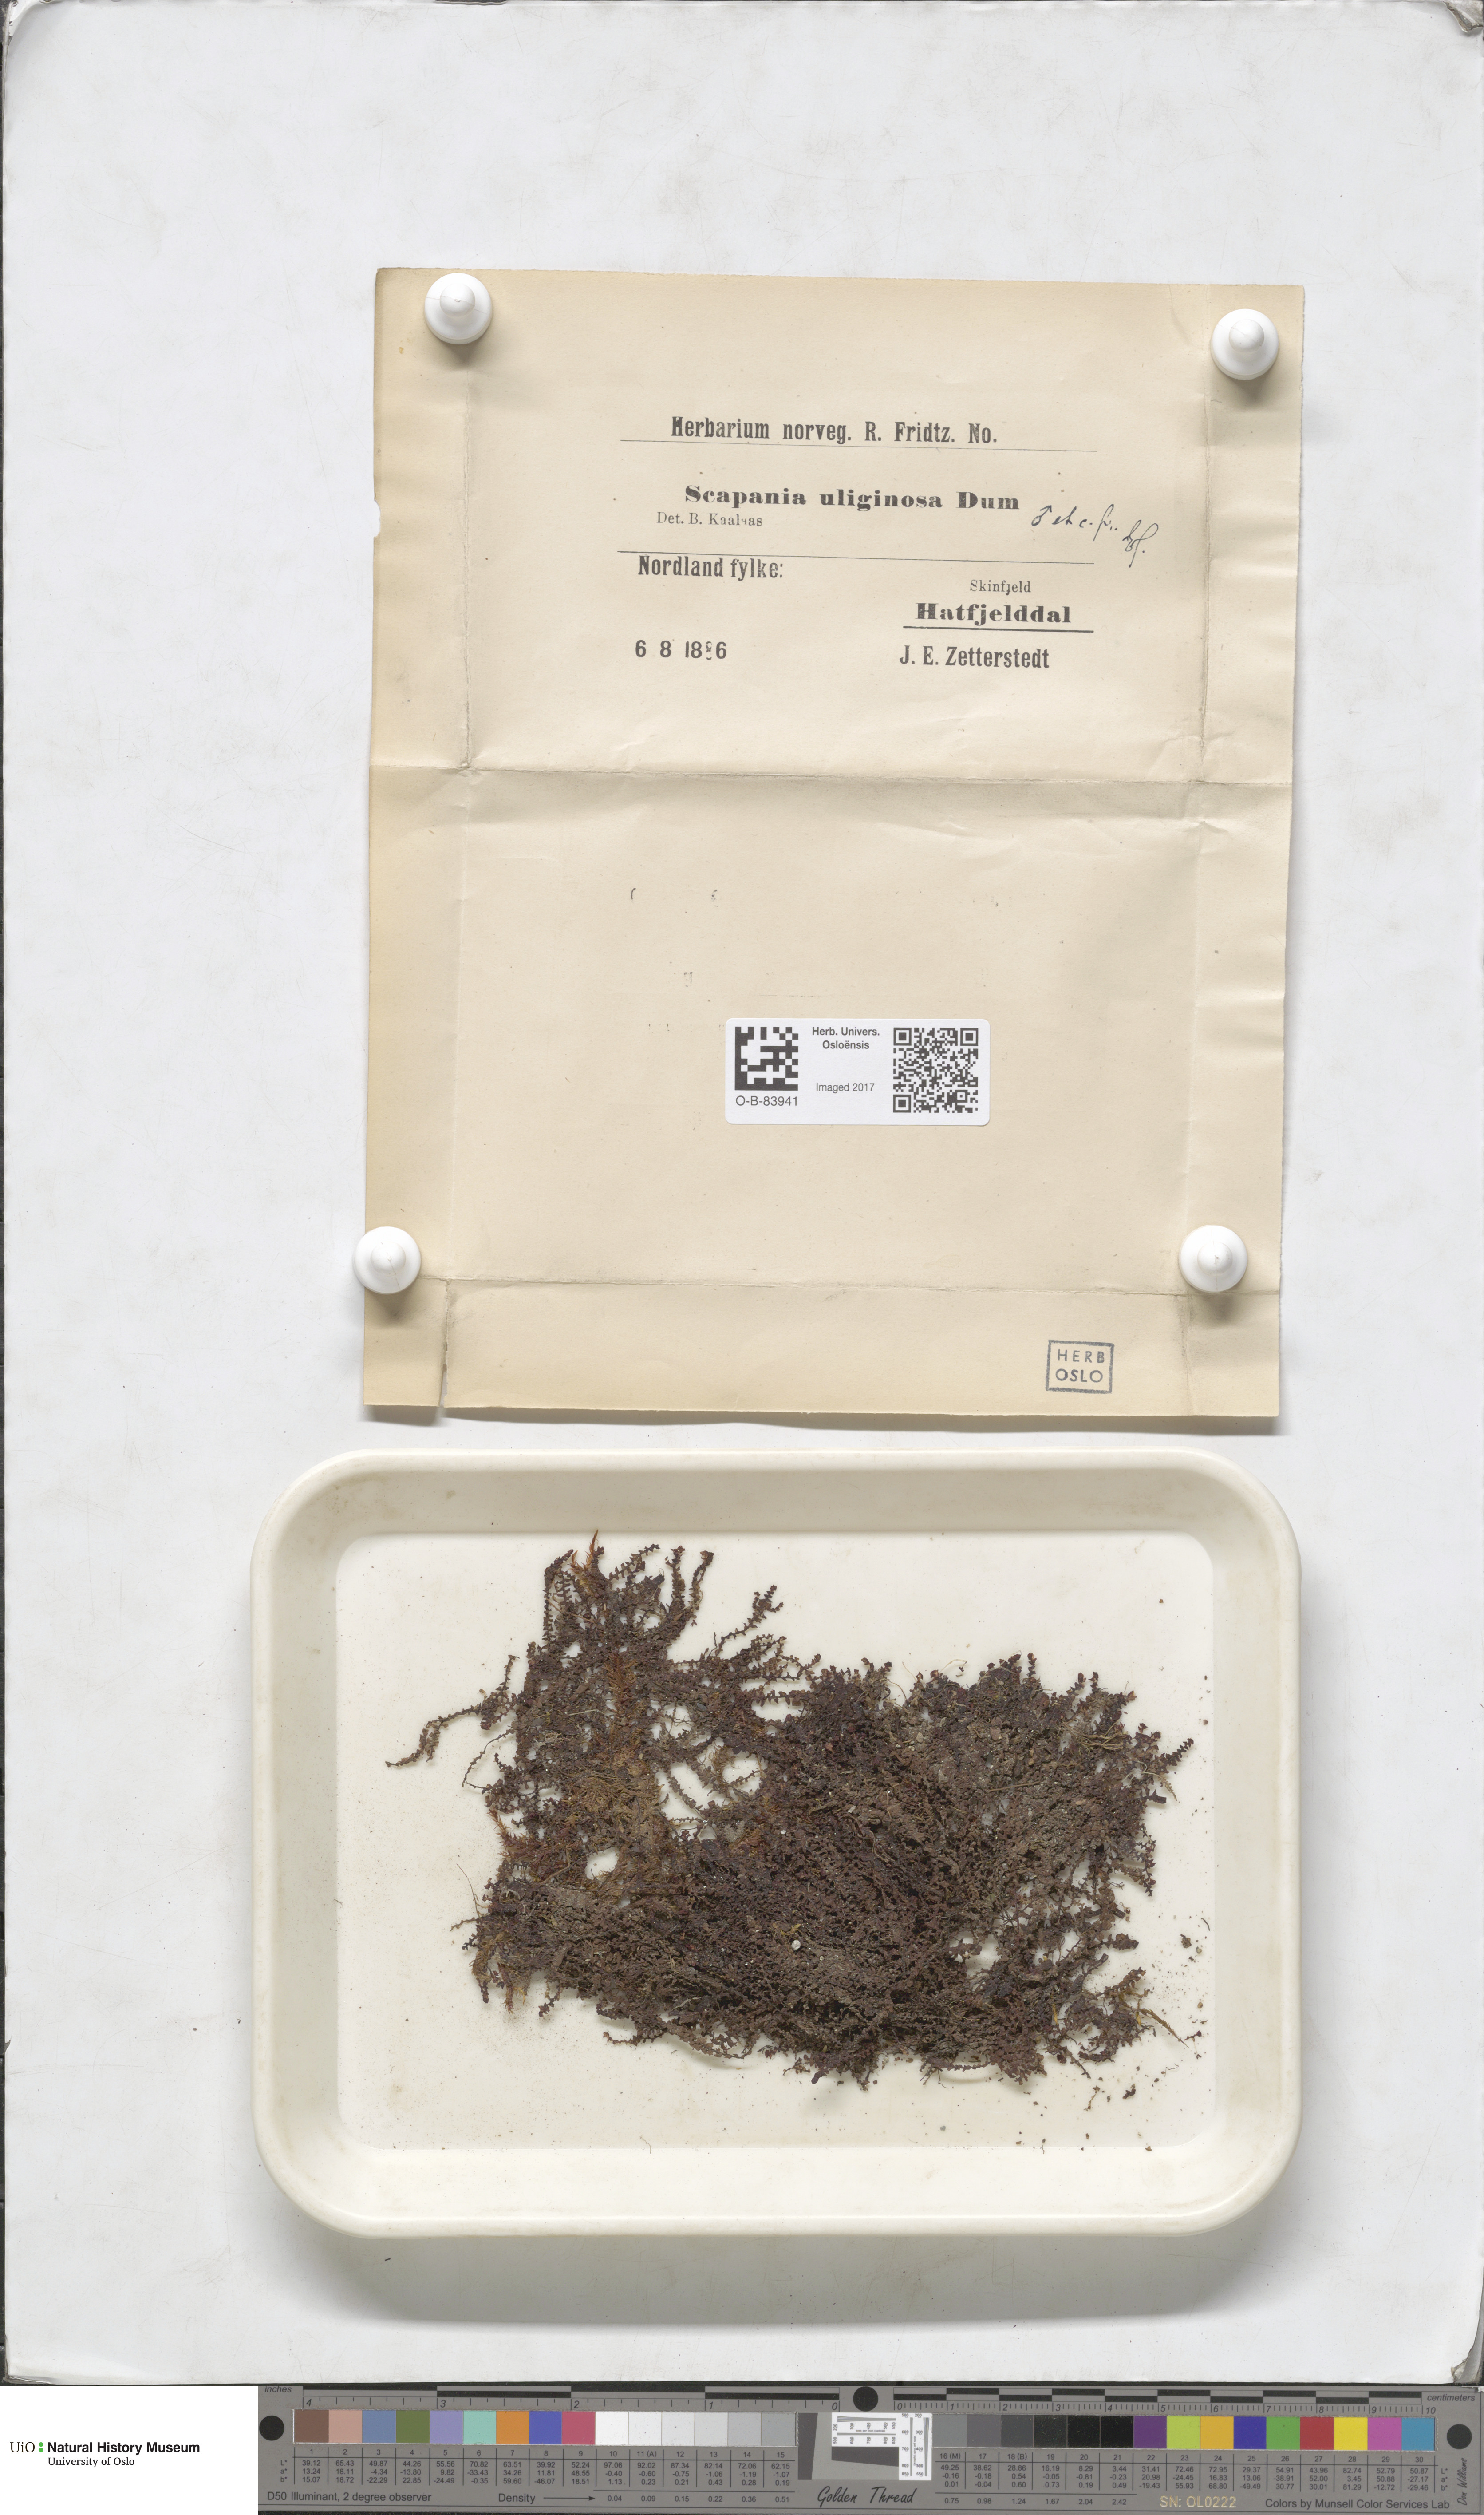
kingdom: Plantae
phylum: Marchantiophyta
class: Jungermanniopsida
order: Jungermanniales
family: Scapaniaceae
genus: Scapania
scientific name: Scapania uliginosa
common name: Marsh earwort
